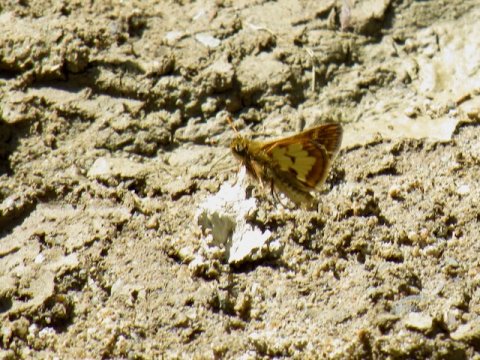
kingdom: Animalia
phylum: Arthropoda
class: Insecta
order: Lepidoptera
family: Hesperiidae
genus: Polites
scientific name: Polites coras
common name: Peck's Skipper
